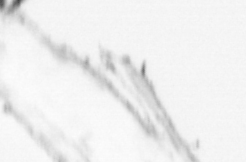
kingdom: Chromista
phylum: Ochrophyta
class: Bacillariophyceae
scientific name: Bacillariophyceae
